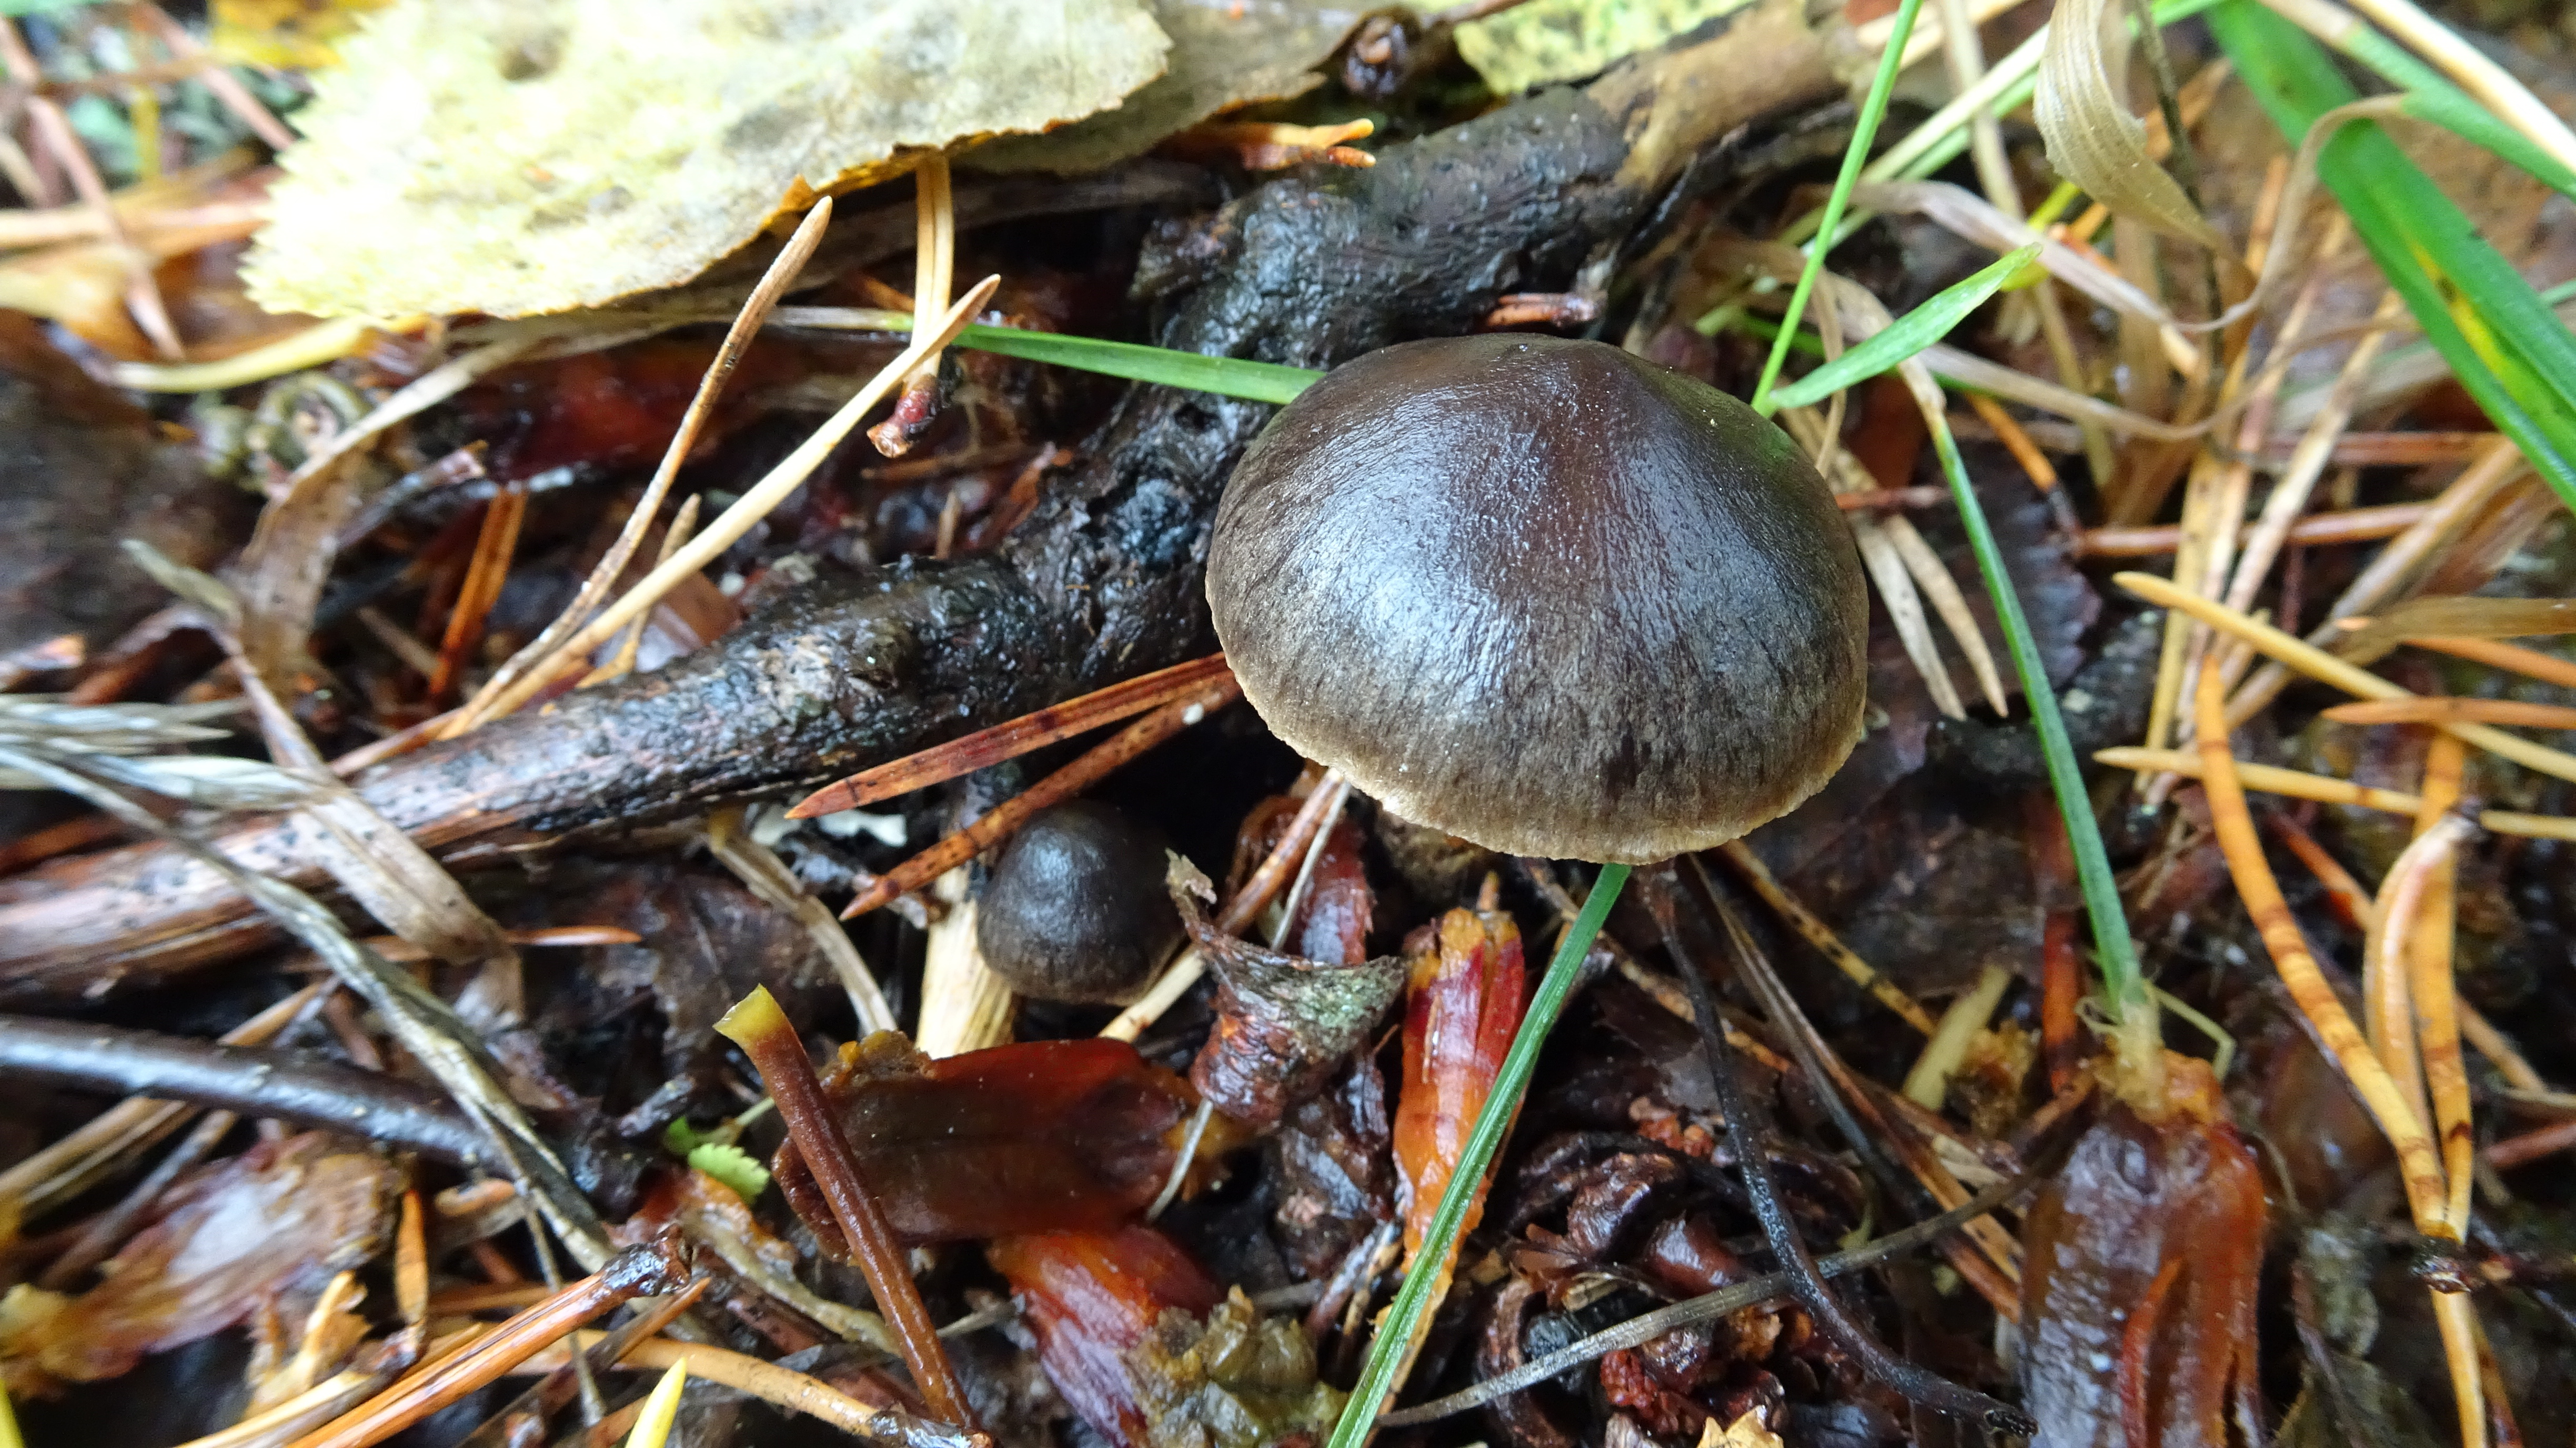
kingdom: Fungi
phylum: Basidiomycota
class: Agaricomycetes
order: Agaricales
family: Cortinariaceae
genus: Cortinarius
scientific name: Cortinarius umbrinolens
